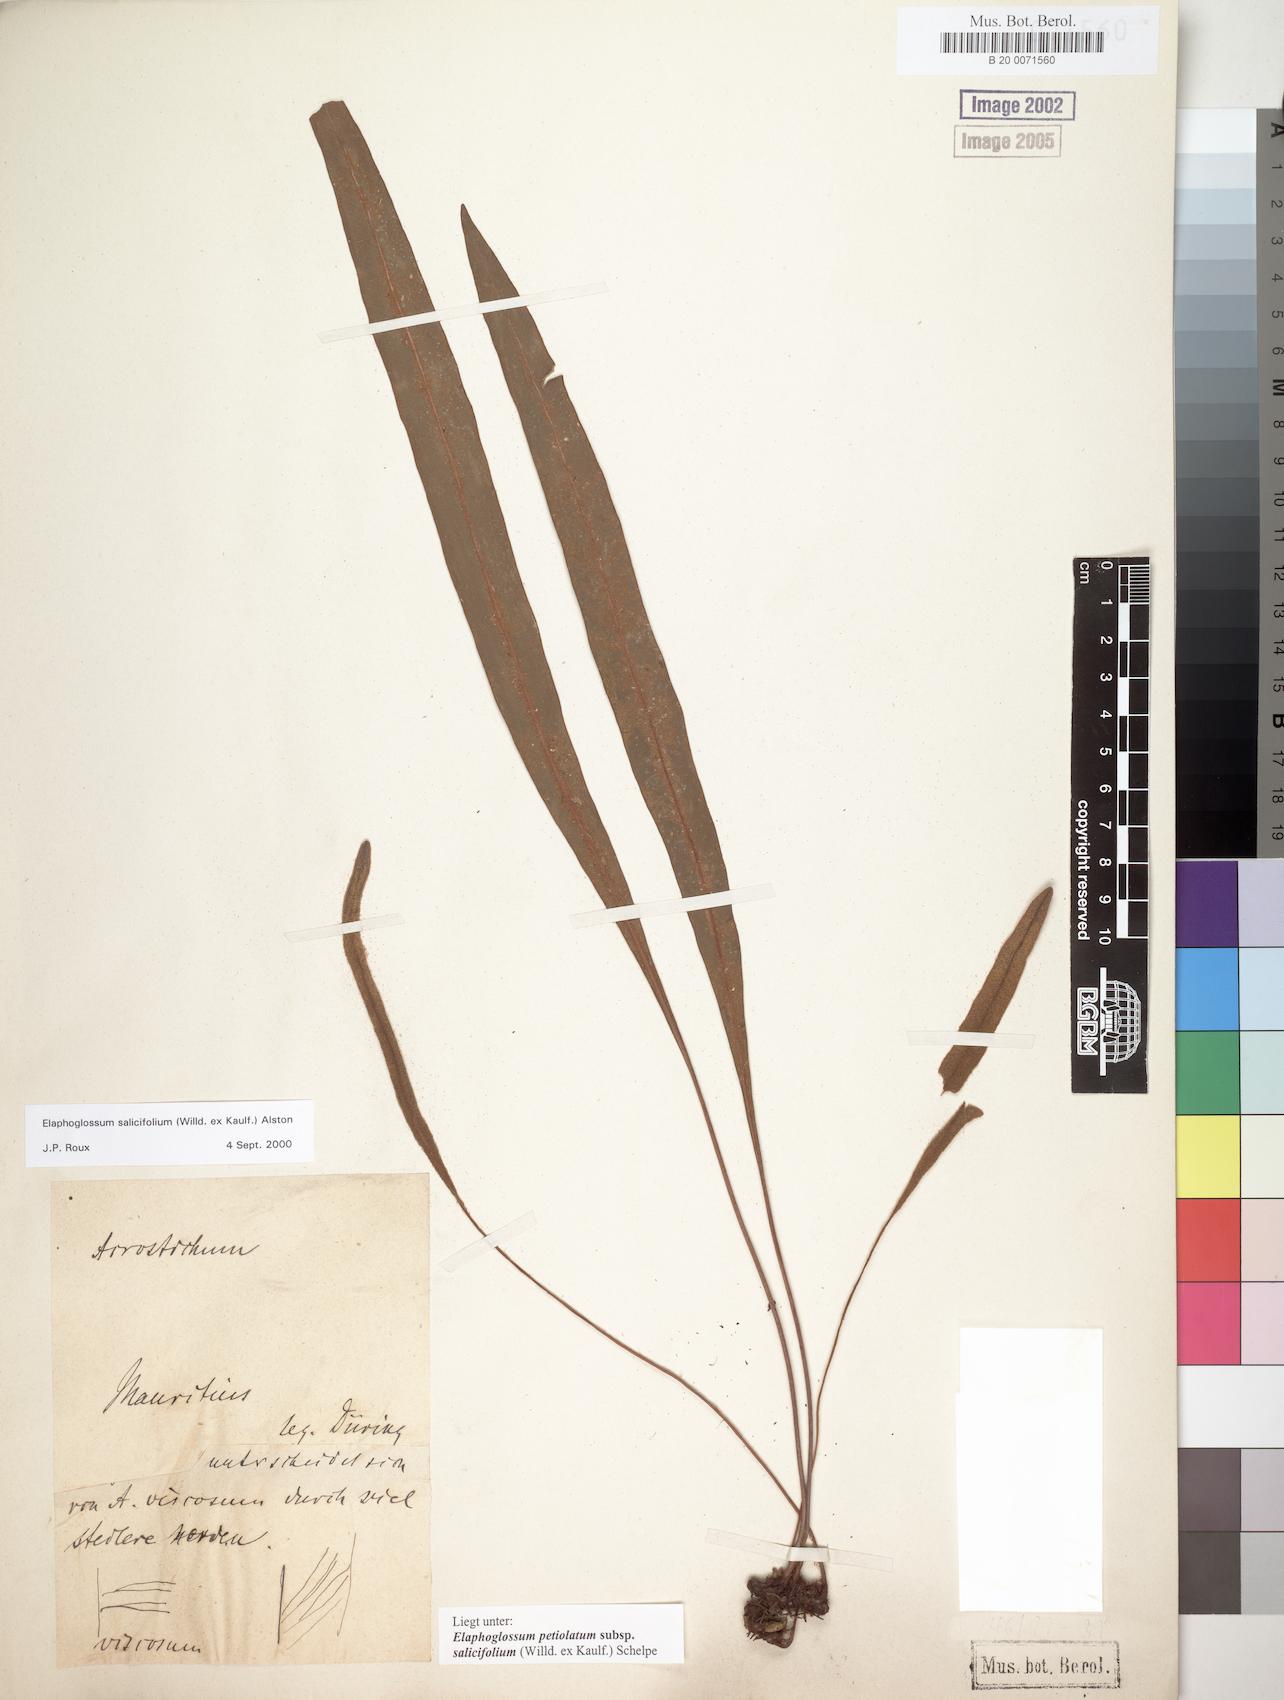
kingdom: Plantae
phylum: Tracheophyta
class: Polypodiopsida
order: Polypodiales
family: Dryopteridaceae
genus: Elaphoglossum
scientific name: Elaphoglossum lancifolium
